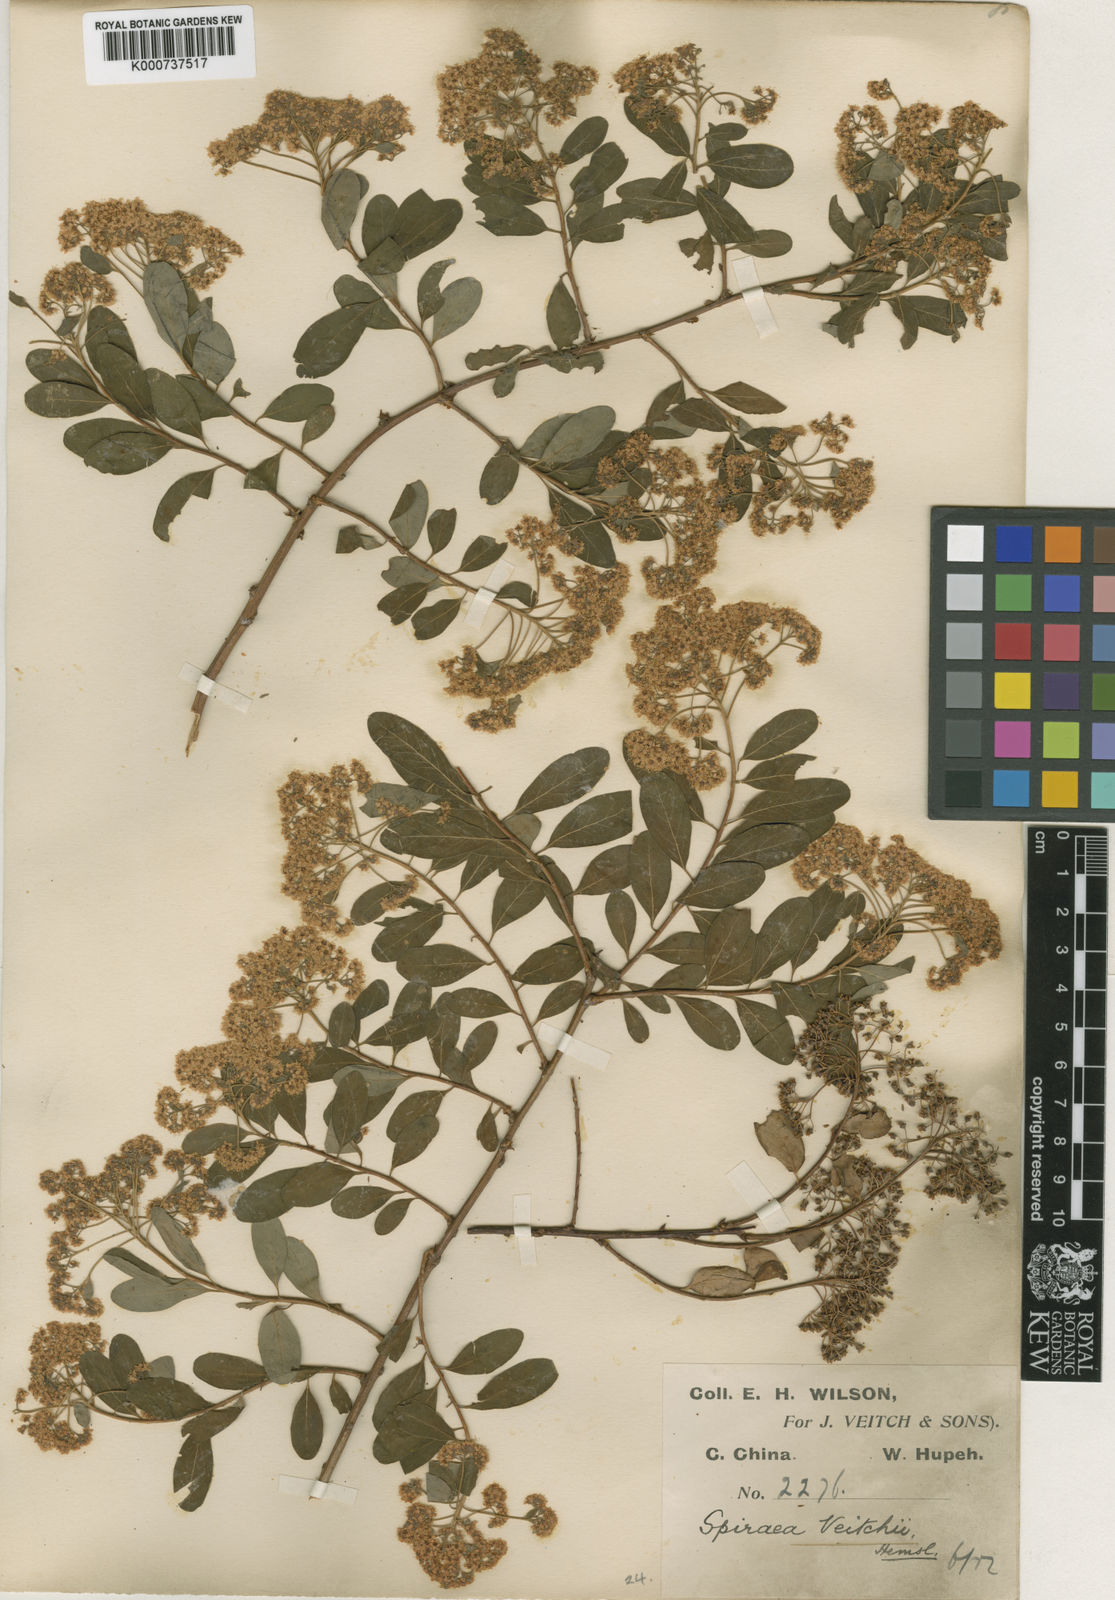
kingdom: Plantae
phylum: Tracheophyta
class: Magnoliopsida
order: Rosales
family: Rosaceae
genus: Spiraea
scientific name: Spiraea veitchii
